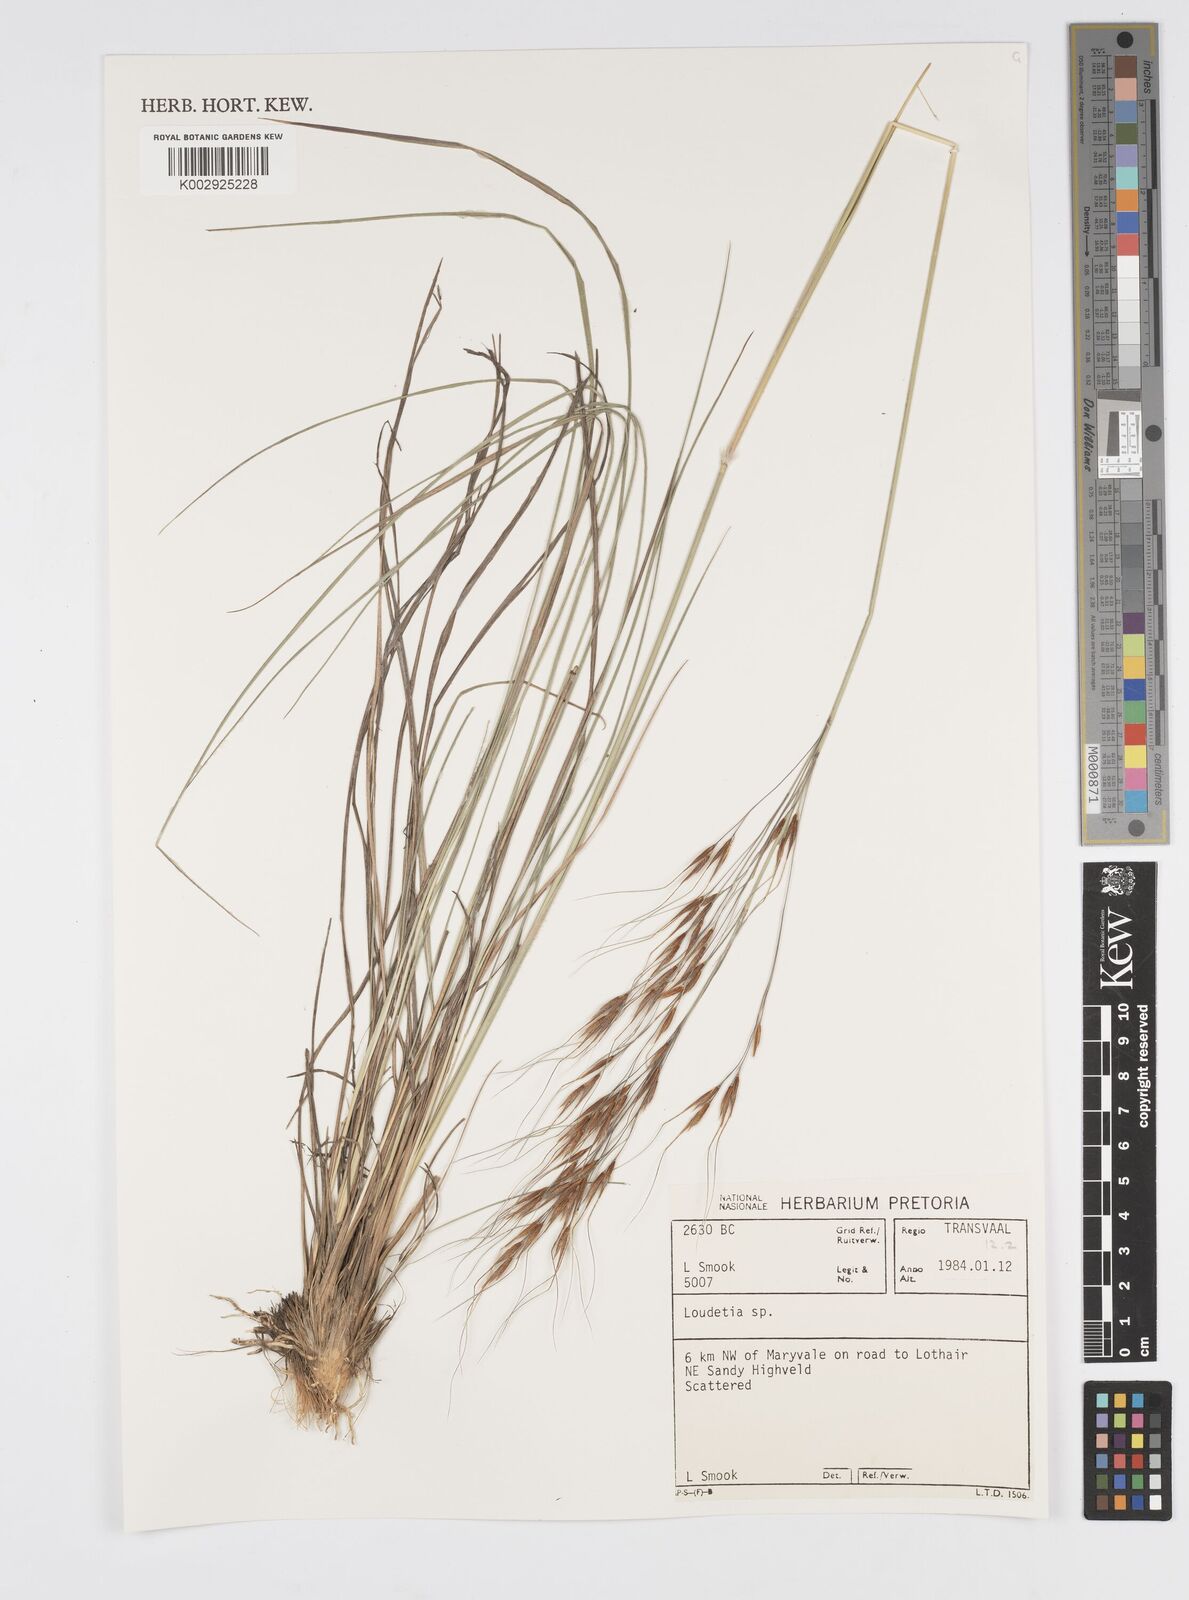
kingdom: Plantae
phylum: Tracheophyta
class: Liliopsida
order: Poales
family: Poaceae
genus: Loudetia
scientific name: Loudetia
